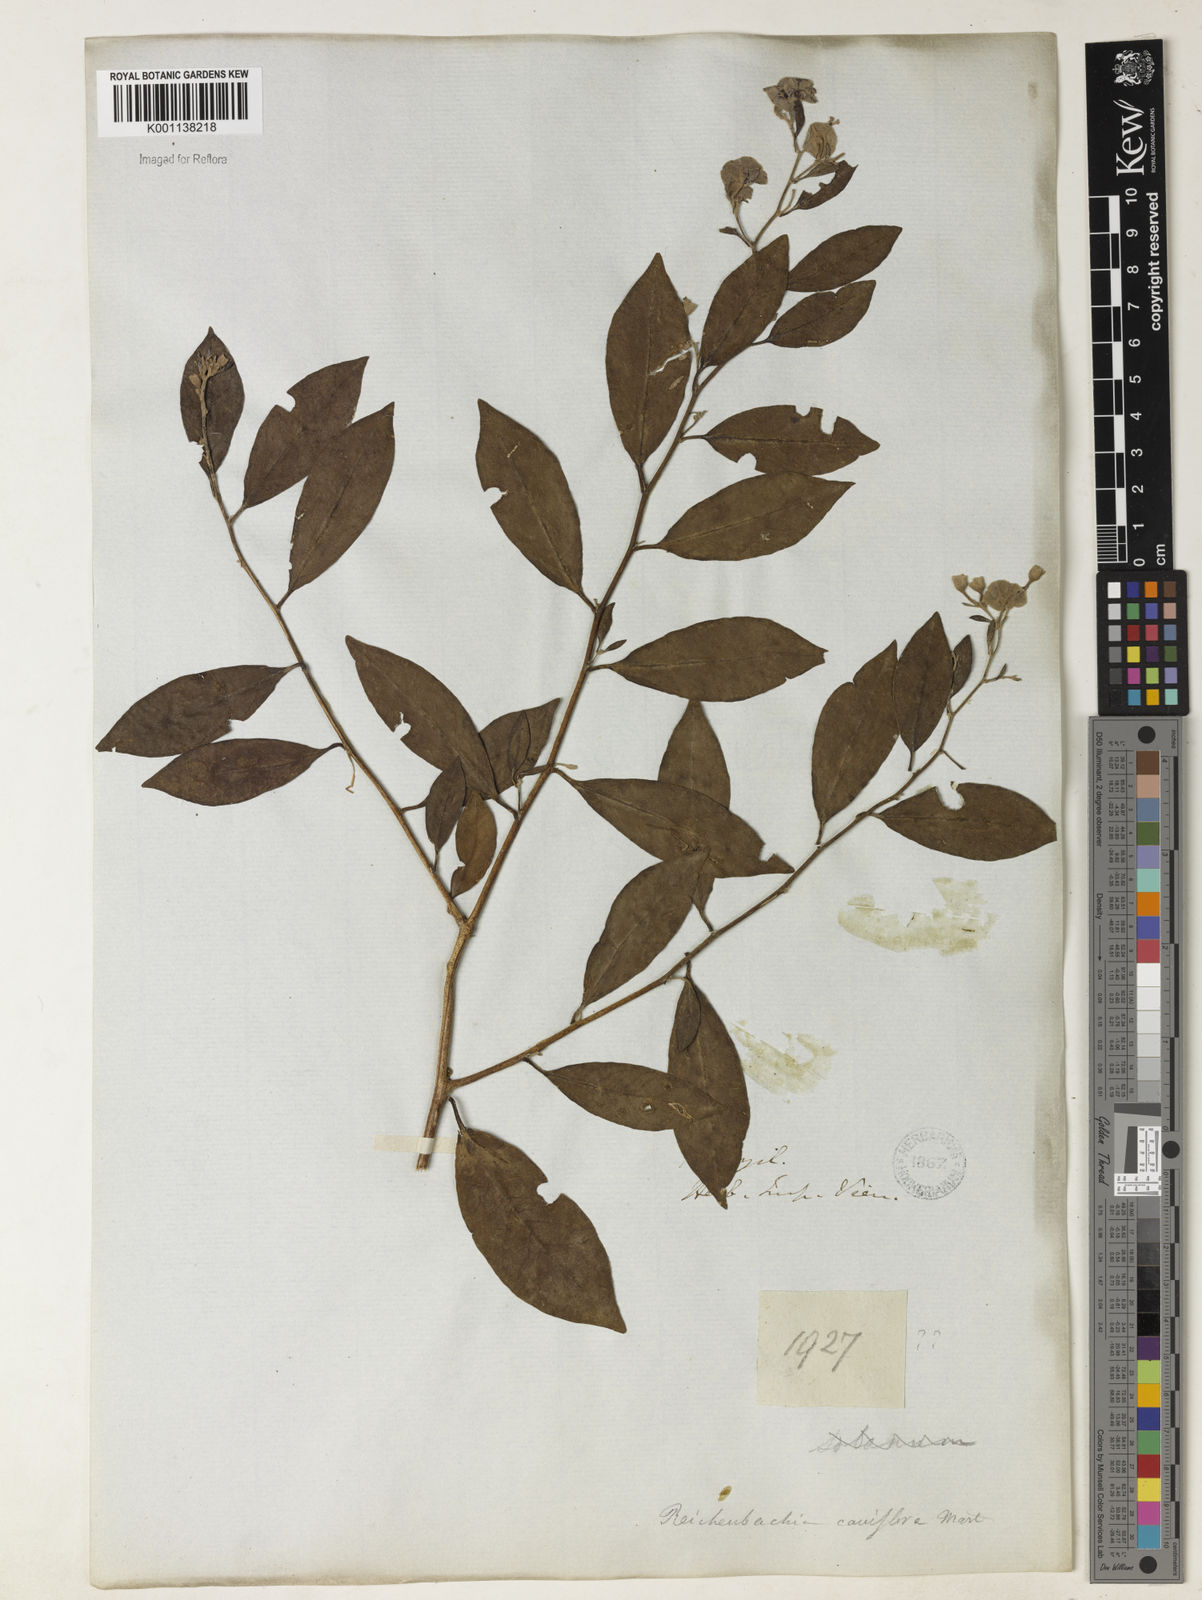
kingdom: Plantae
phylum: Tracheophyta
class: Magnoliopsida
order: Caryophyllales
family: Nyctaginaceae
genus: Leucaster
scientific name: Leucaster caniflorus
